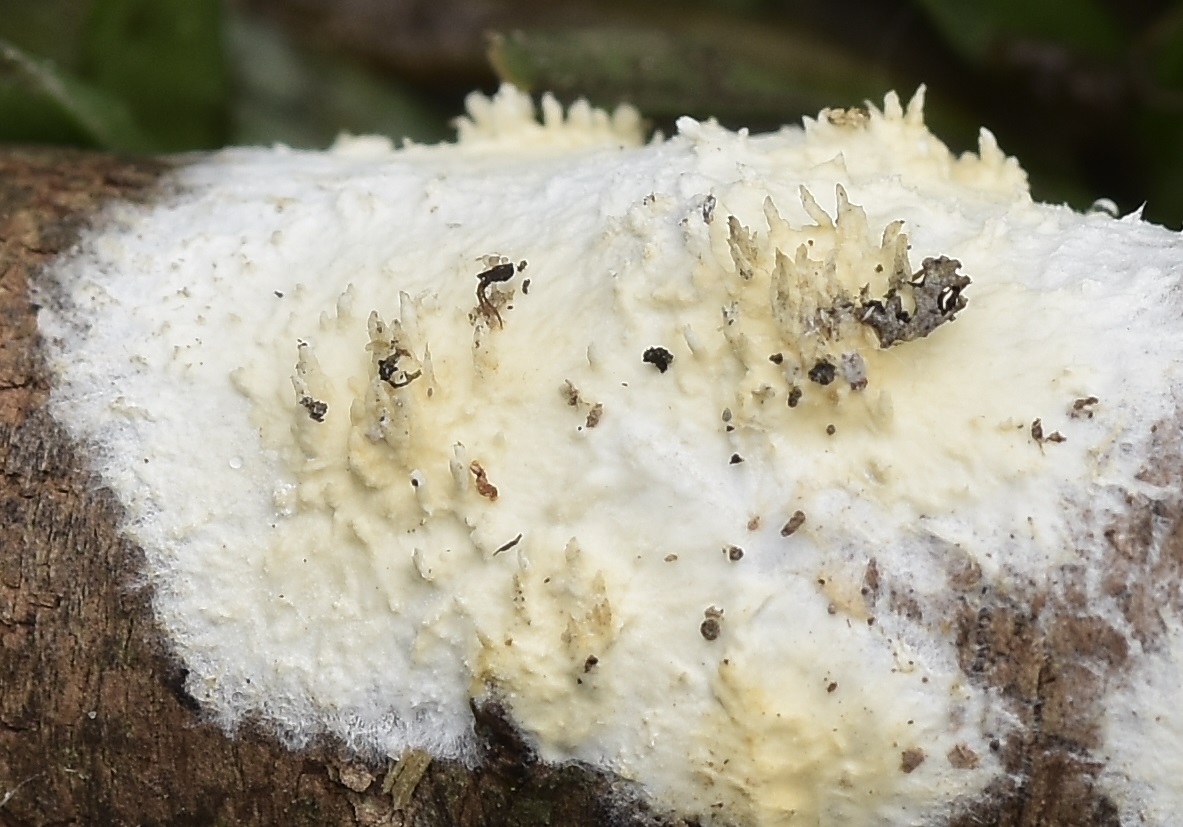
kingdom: Fungi
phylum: Basidiomycota
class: Agaricomycetes
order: Hymenochaetales
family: Schizoporaceae
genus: Xylodon
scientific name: Xylodon radula
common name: grovtandet kalkskind
